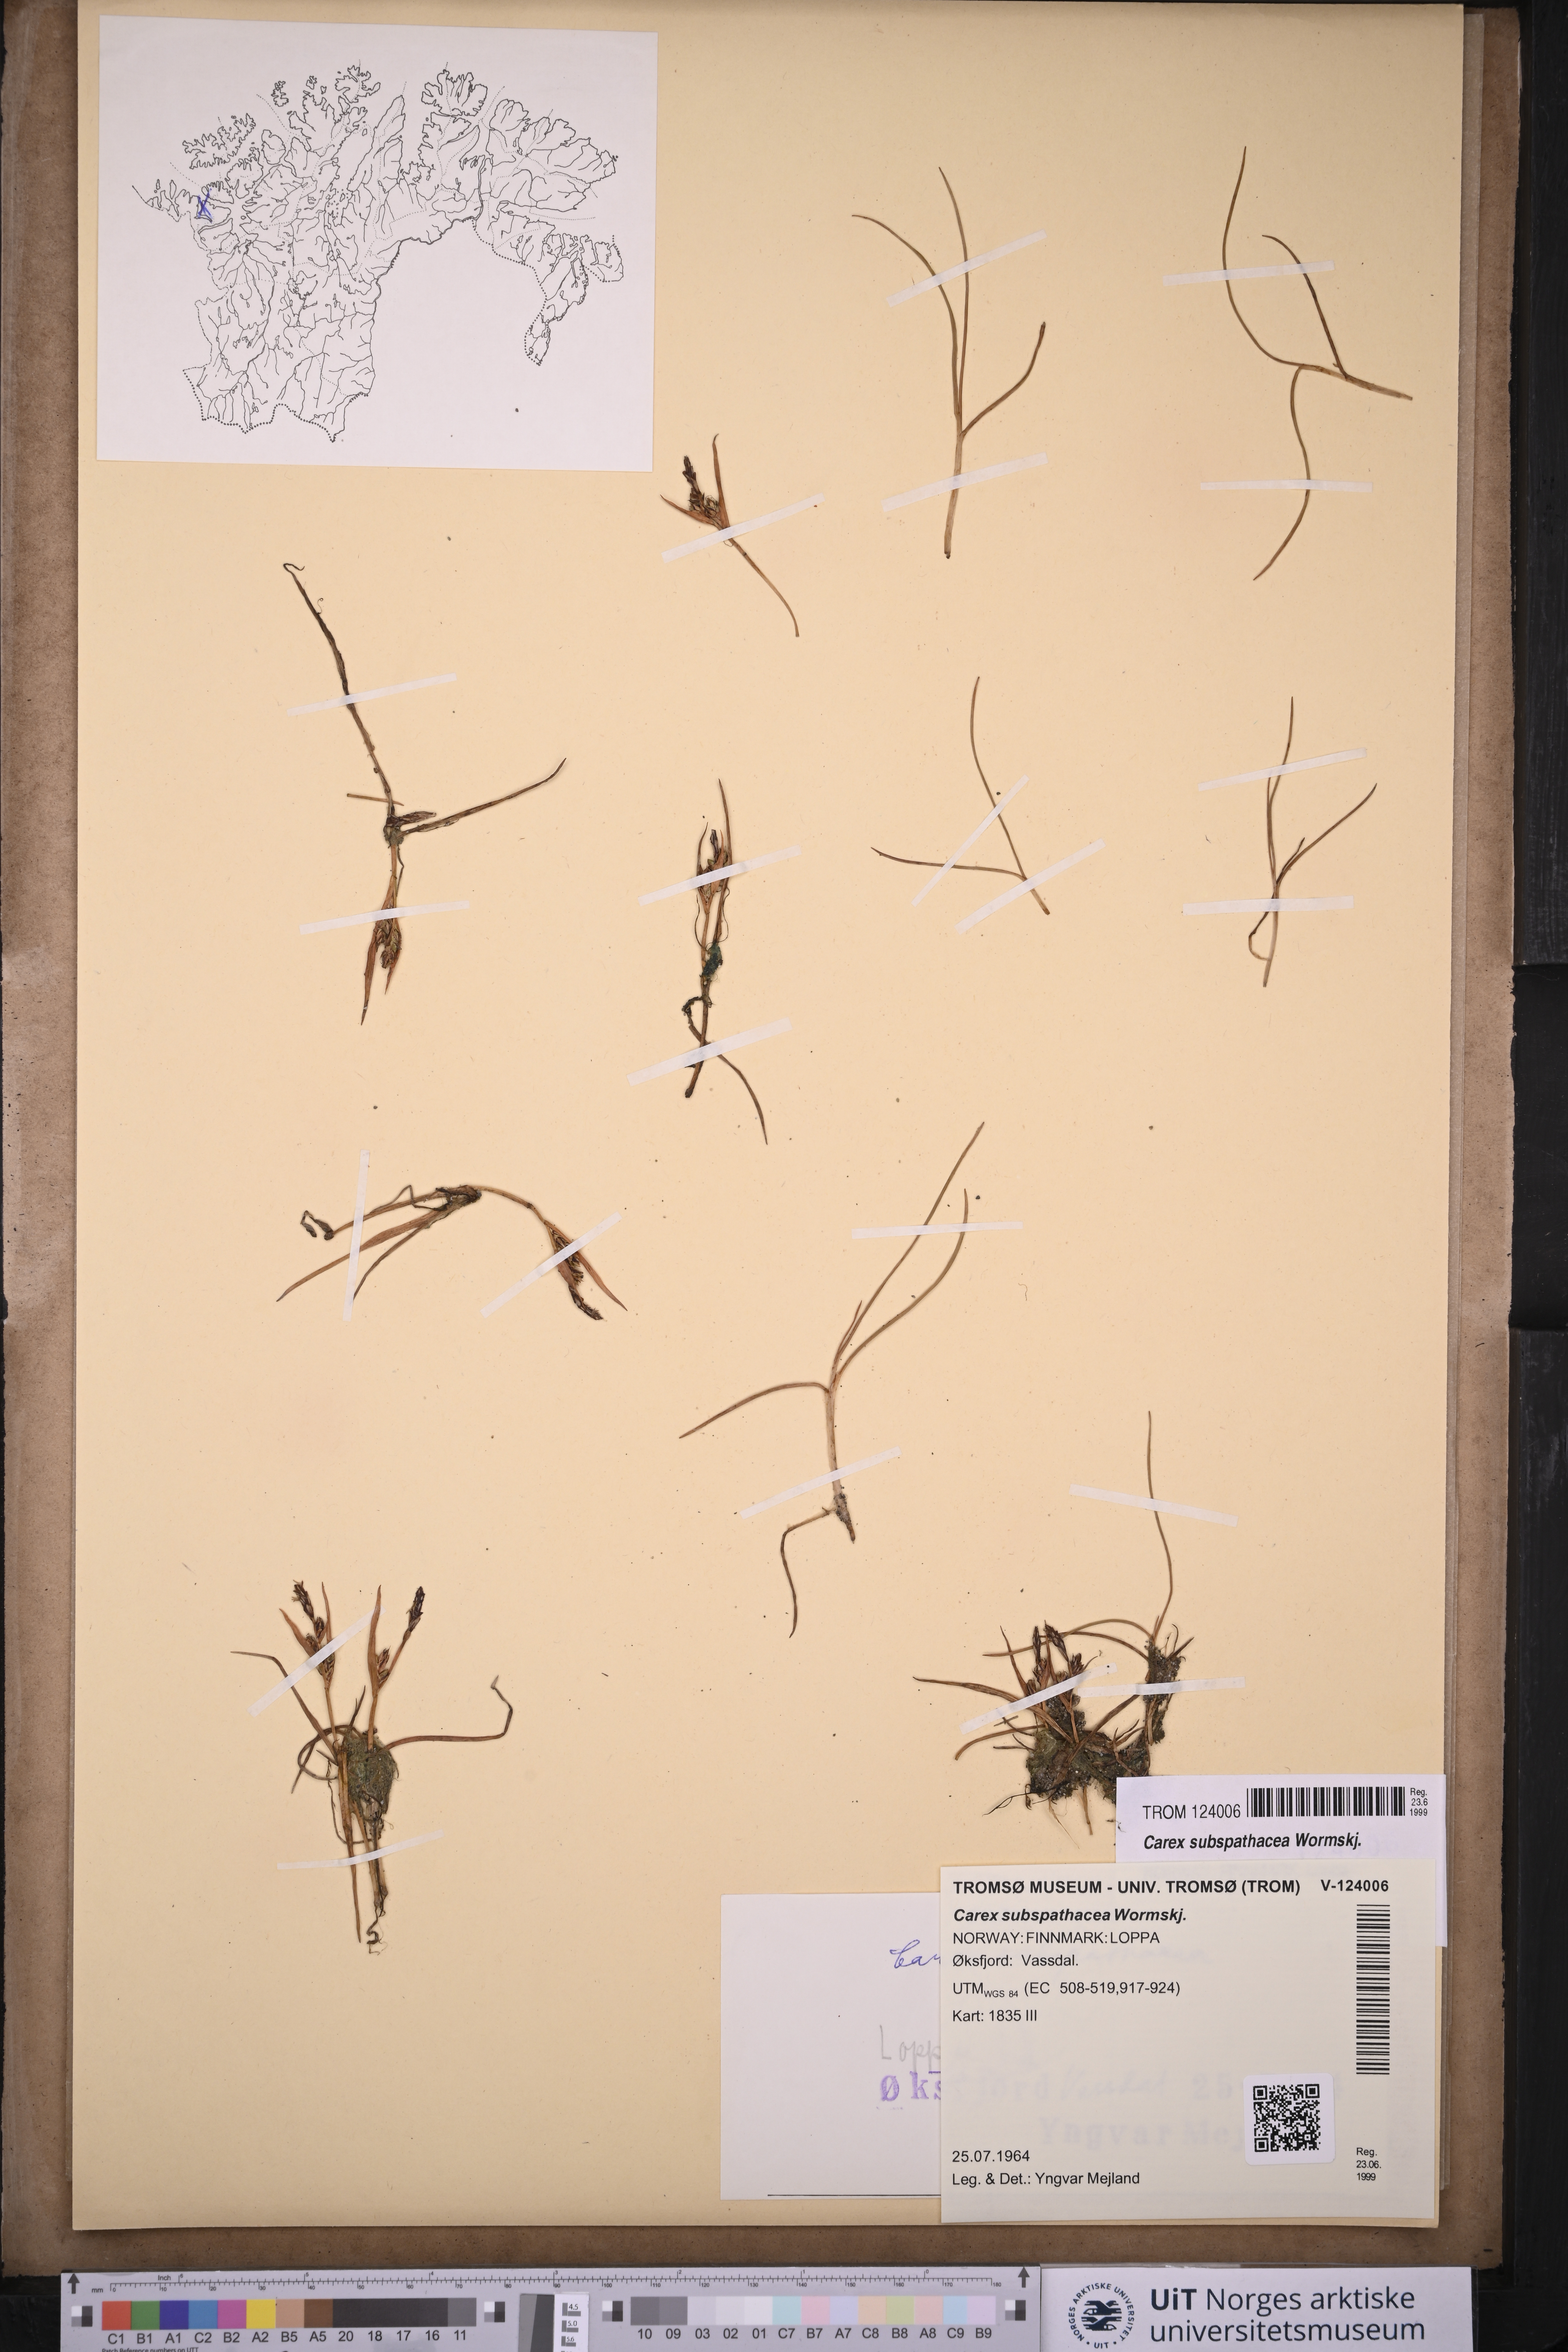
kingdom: Plantae
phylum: Tracheophyta
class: Liliopsida
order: Poales
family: Cyperaceae
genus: Carex
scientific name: Carex subspathacea
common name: Hoppner's sedge
